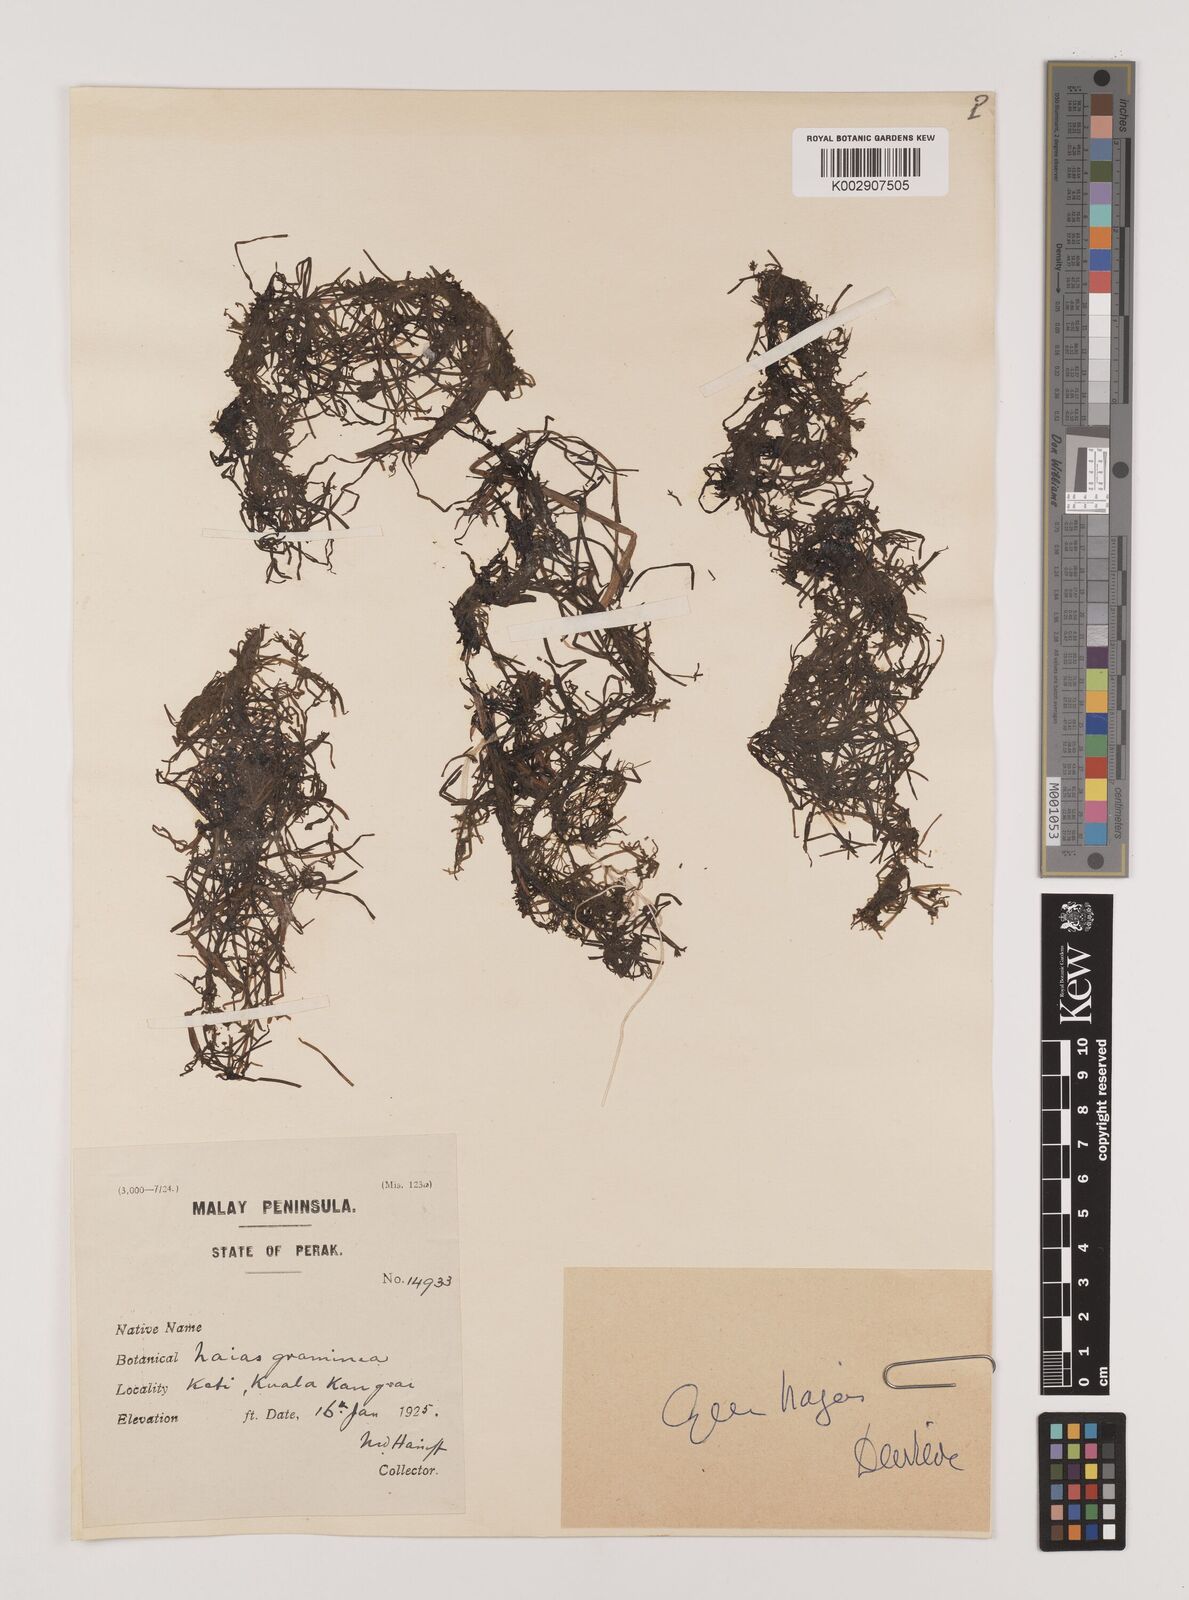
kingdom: Plantae
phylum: Tracheophyta
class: Liliopsida
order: Alismatales
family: Hydrocharitaceae
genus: Najas
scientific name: Najas graminea
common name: Ricefield waternymph
